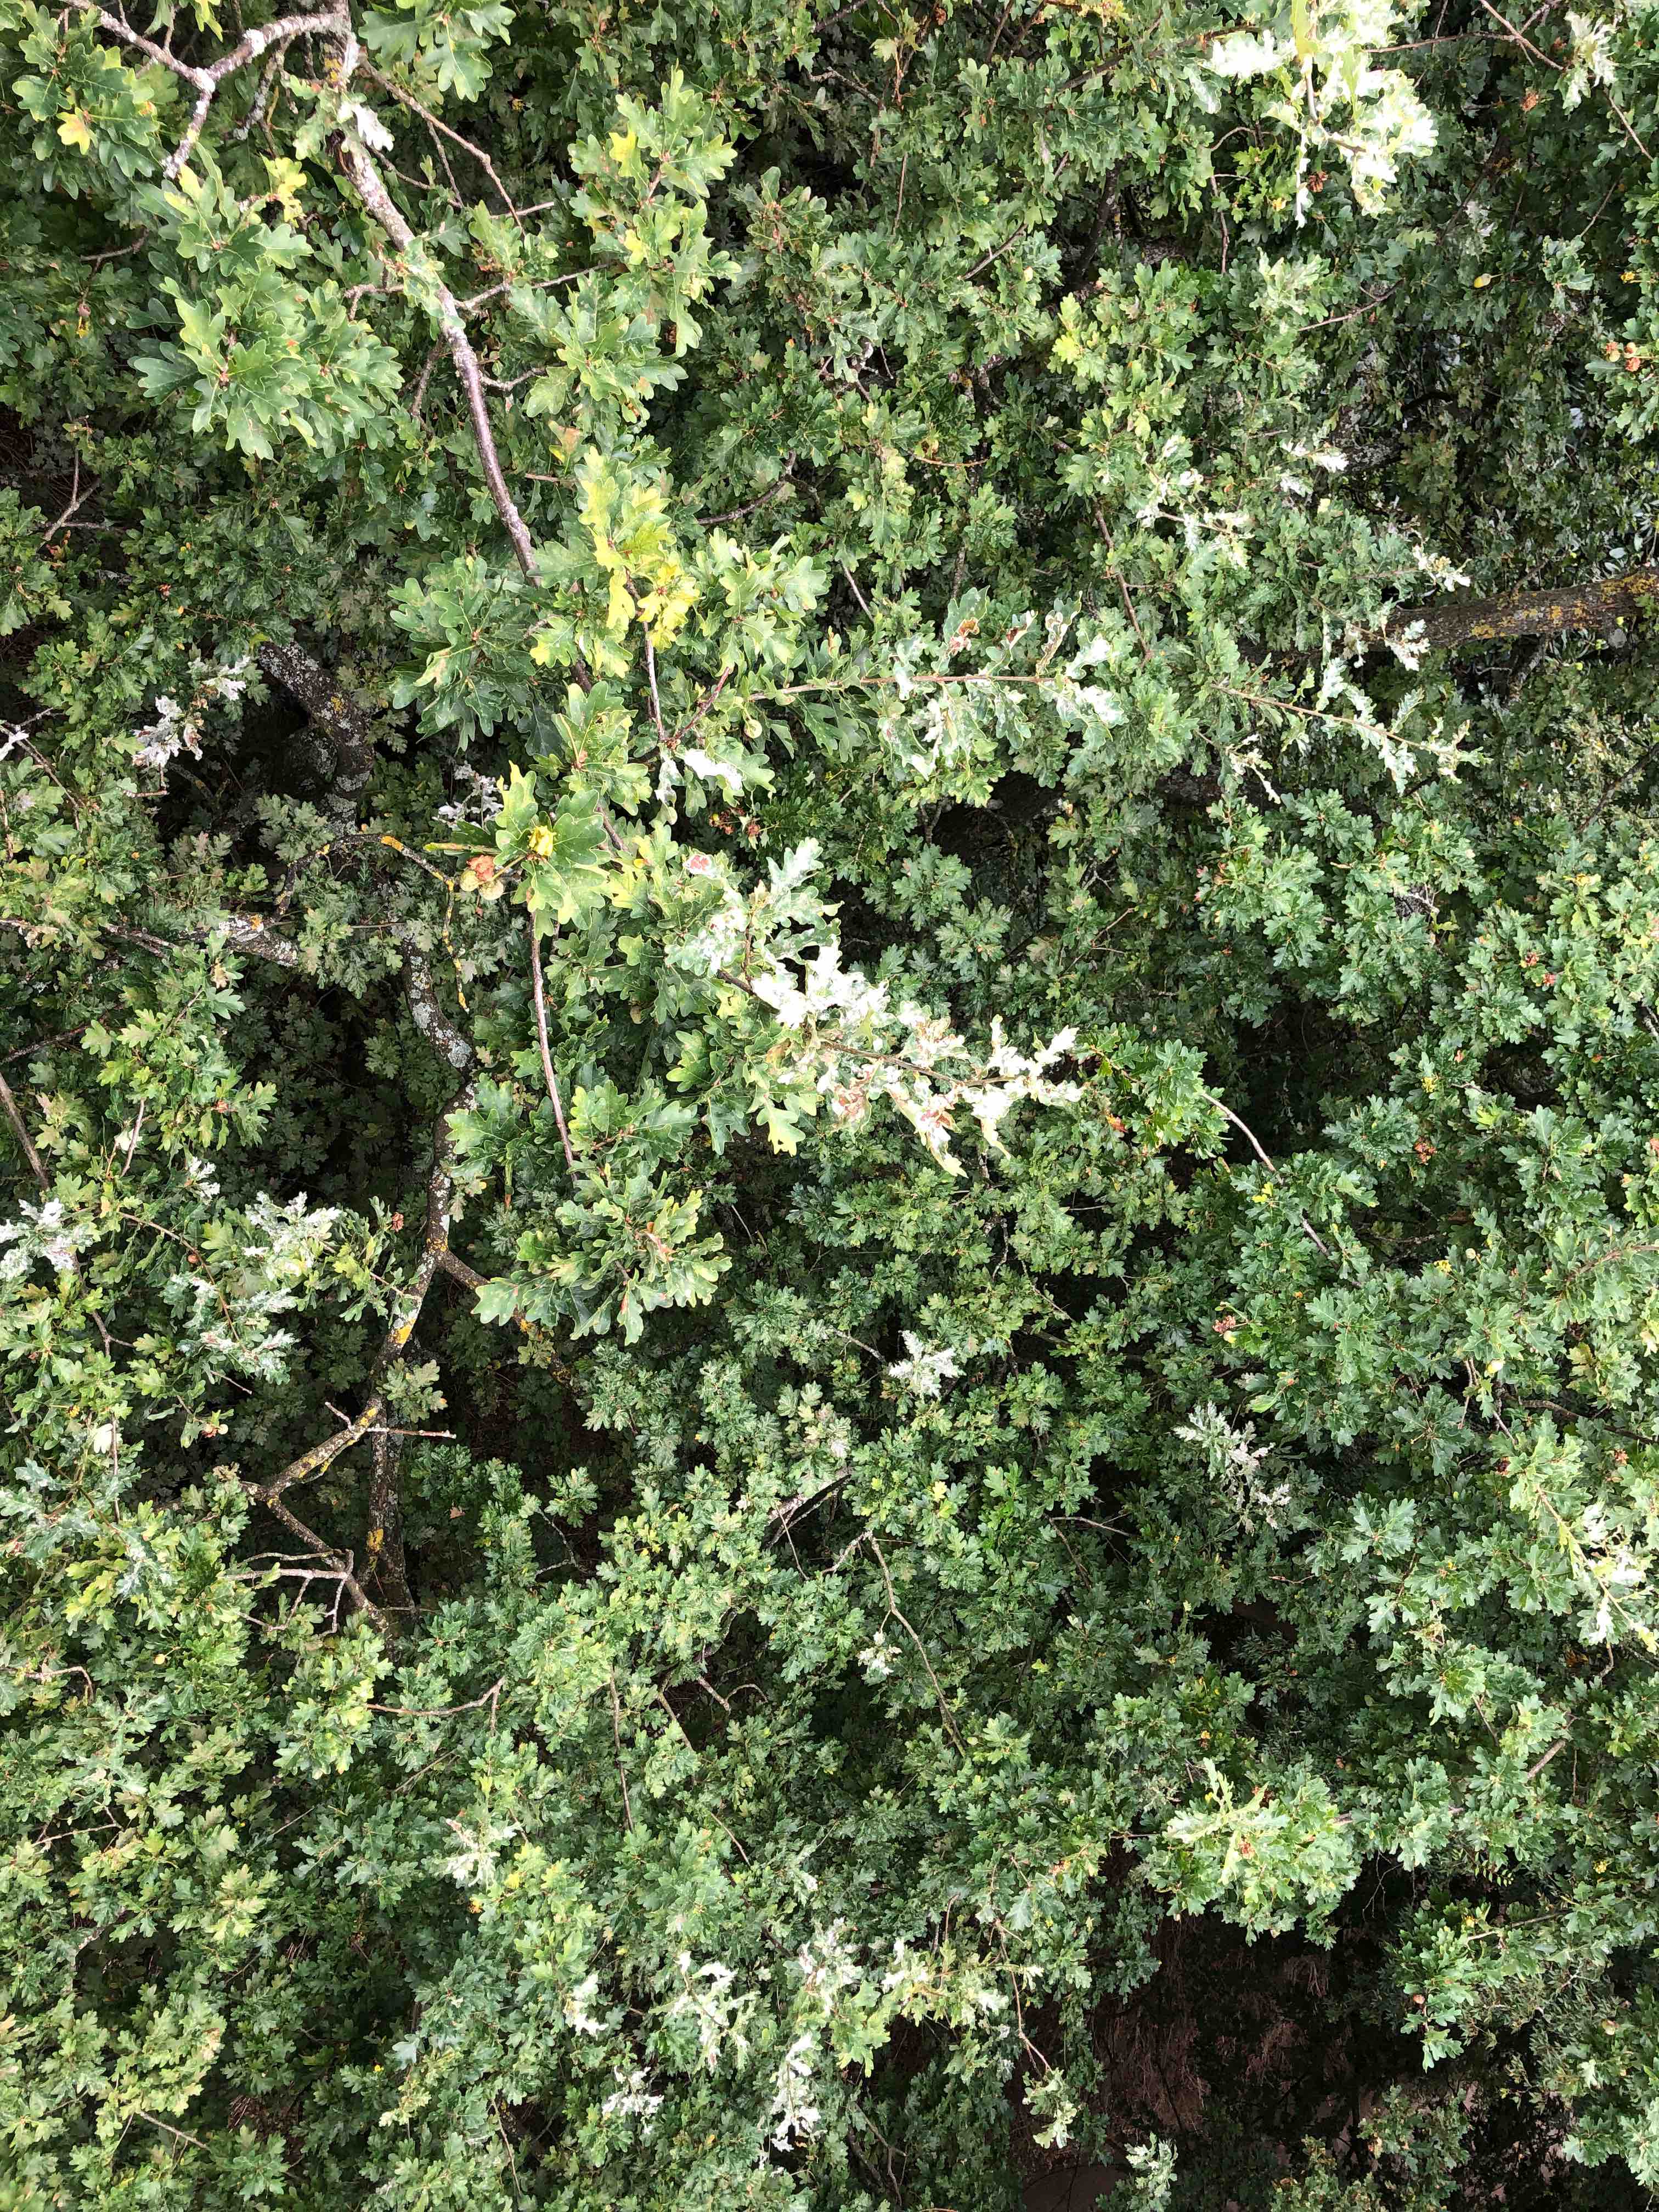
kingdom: Fungi
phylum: Ascomycota
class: Leotiomycetes
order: Helotiales
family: Erysiphaceae
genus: Erysiphe
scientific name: Erysiphe alphitoides
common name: ege-meldug
